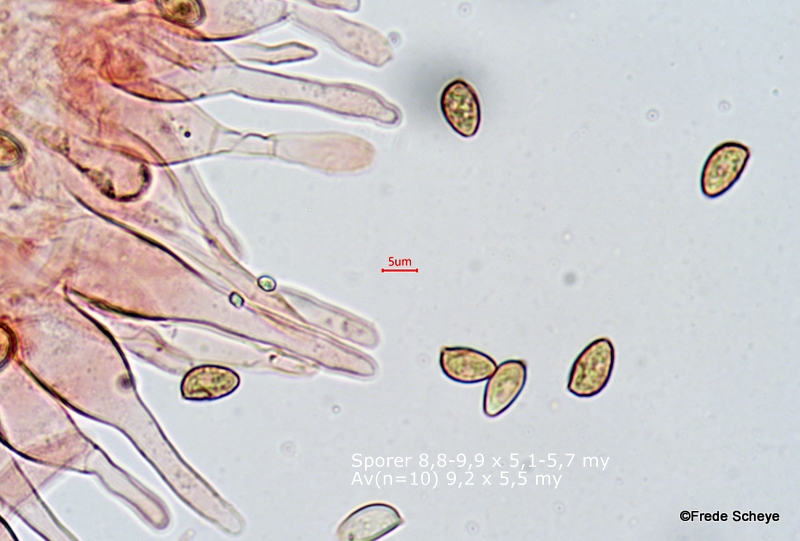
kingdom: Fungi
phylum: Basidiomycota
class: Agaricomycetes
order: Agaricales
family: Hymenogastraceae
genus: Galerina
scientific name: Galerina marginata
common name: randbæltet hjelmhat
